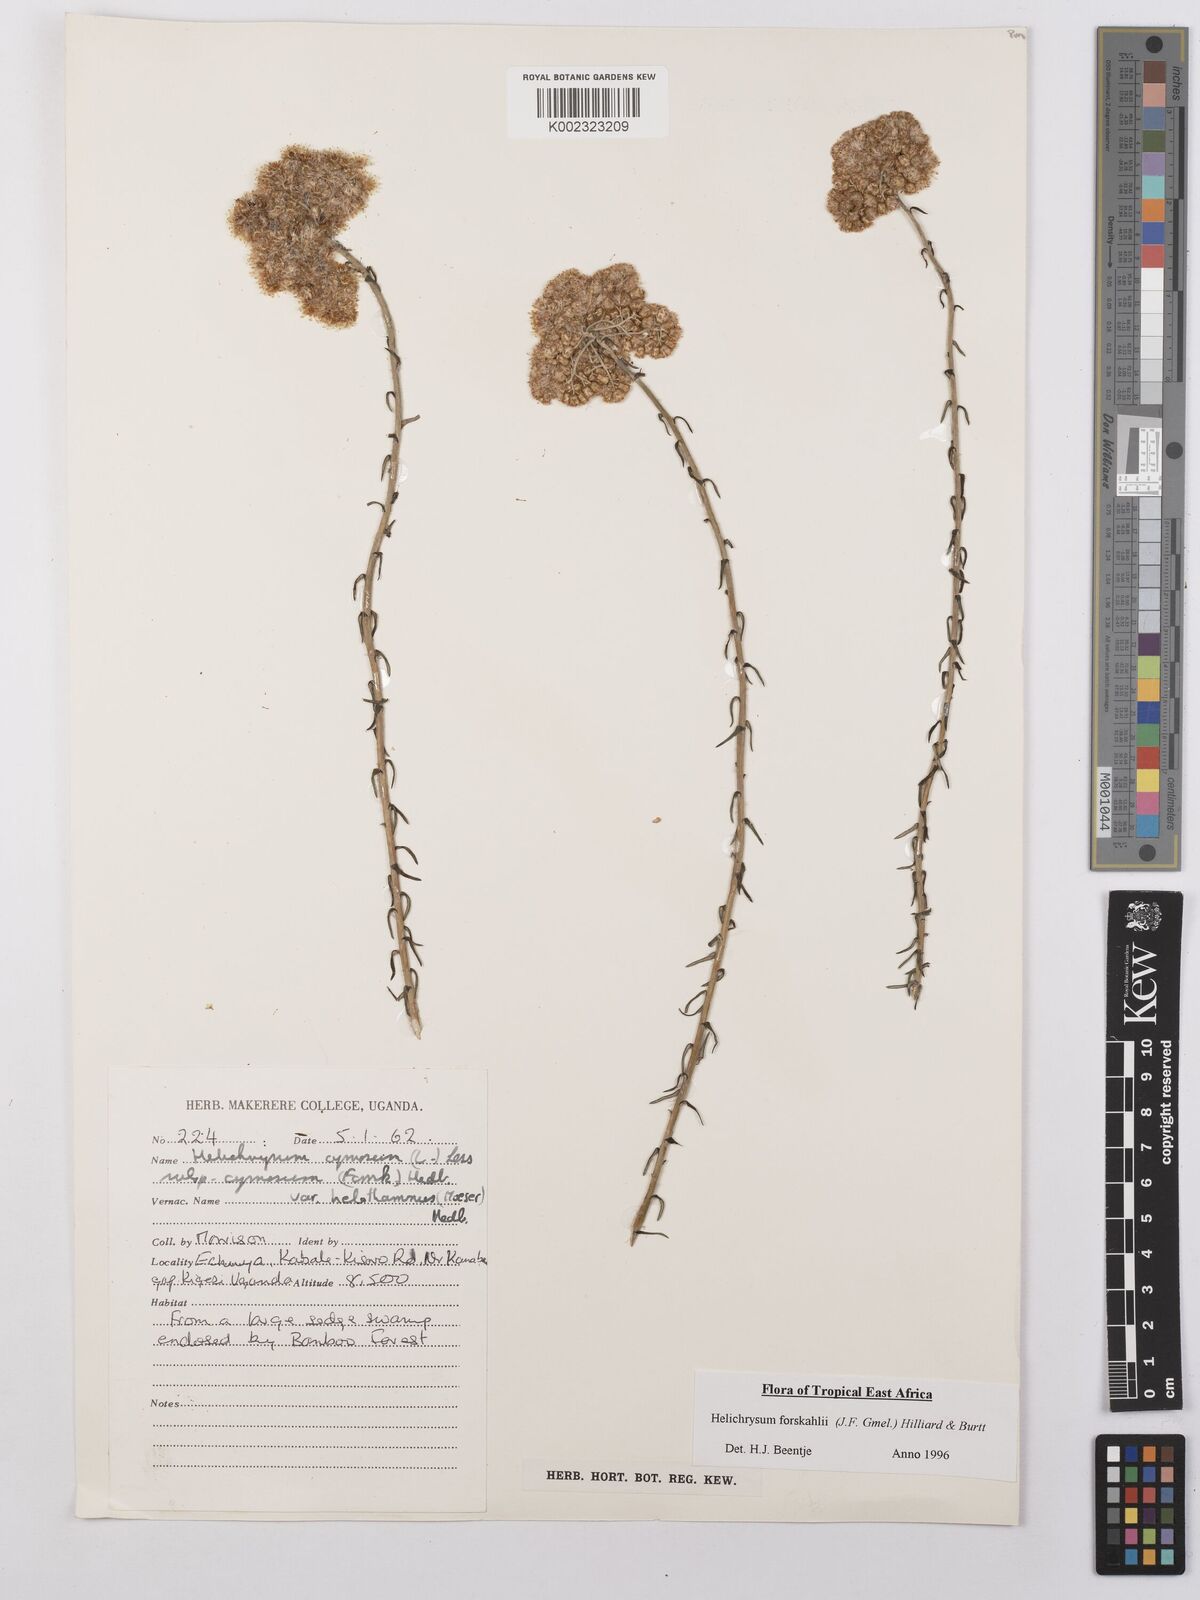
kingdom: Plantae
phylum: Tracheophyta
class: Magnoliopsida
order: Asterales
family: Asteraceae
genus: Helichrysum
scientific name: Helichrysum forskahlii
